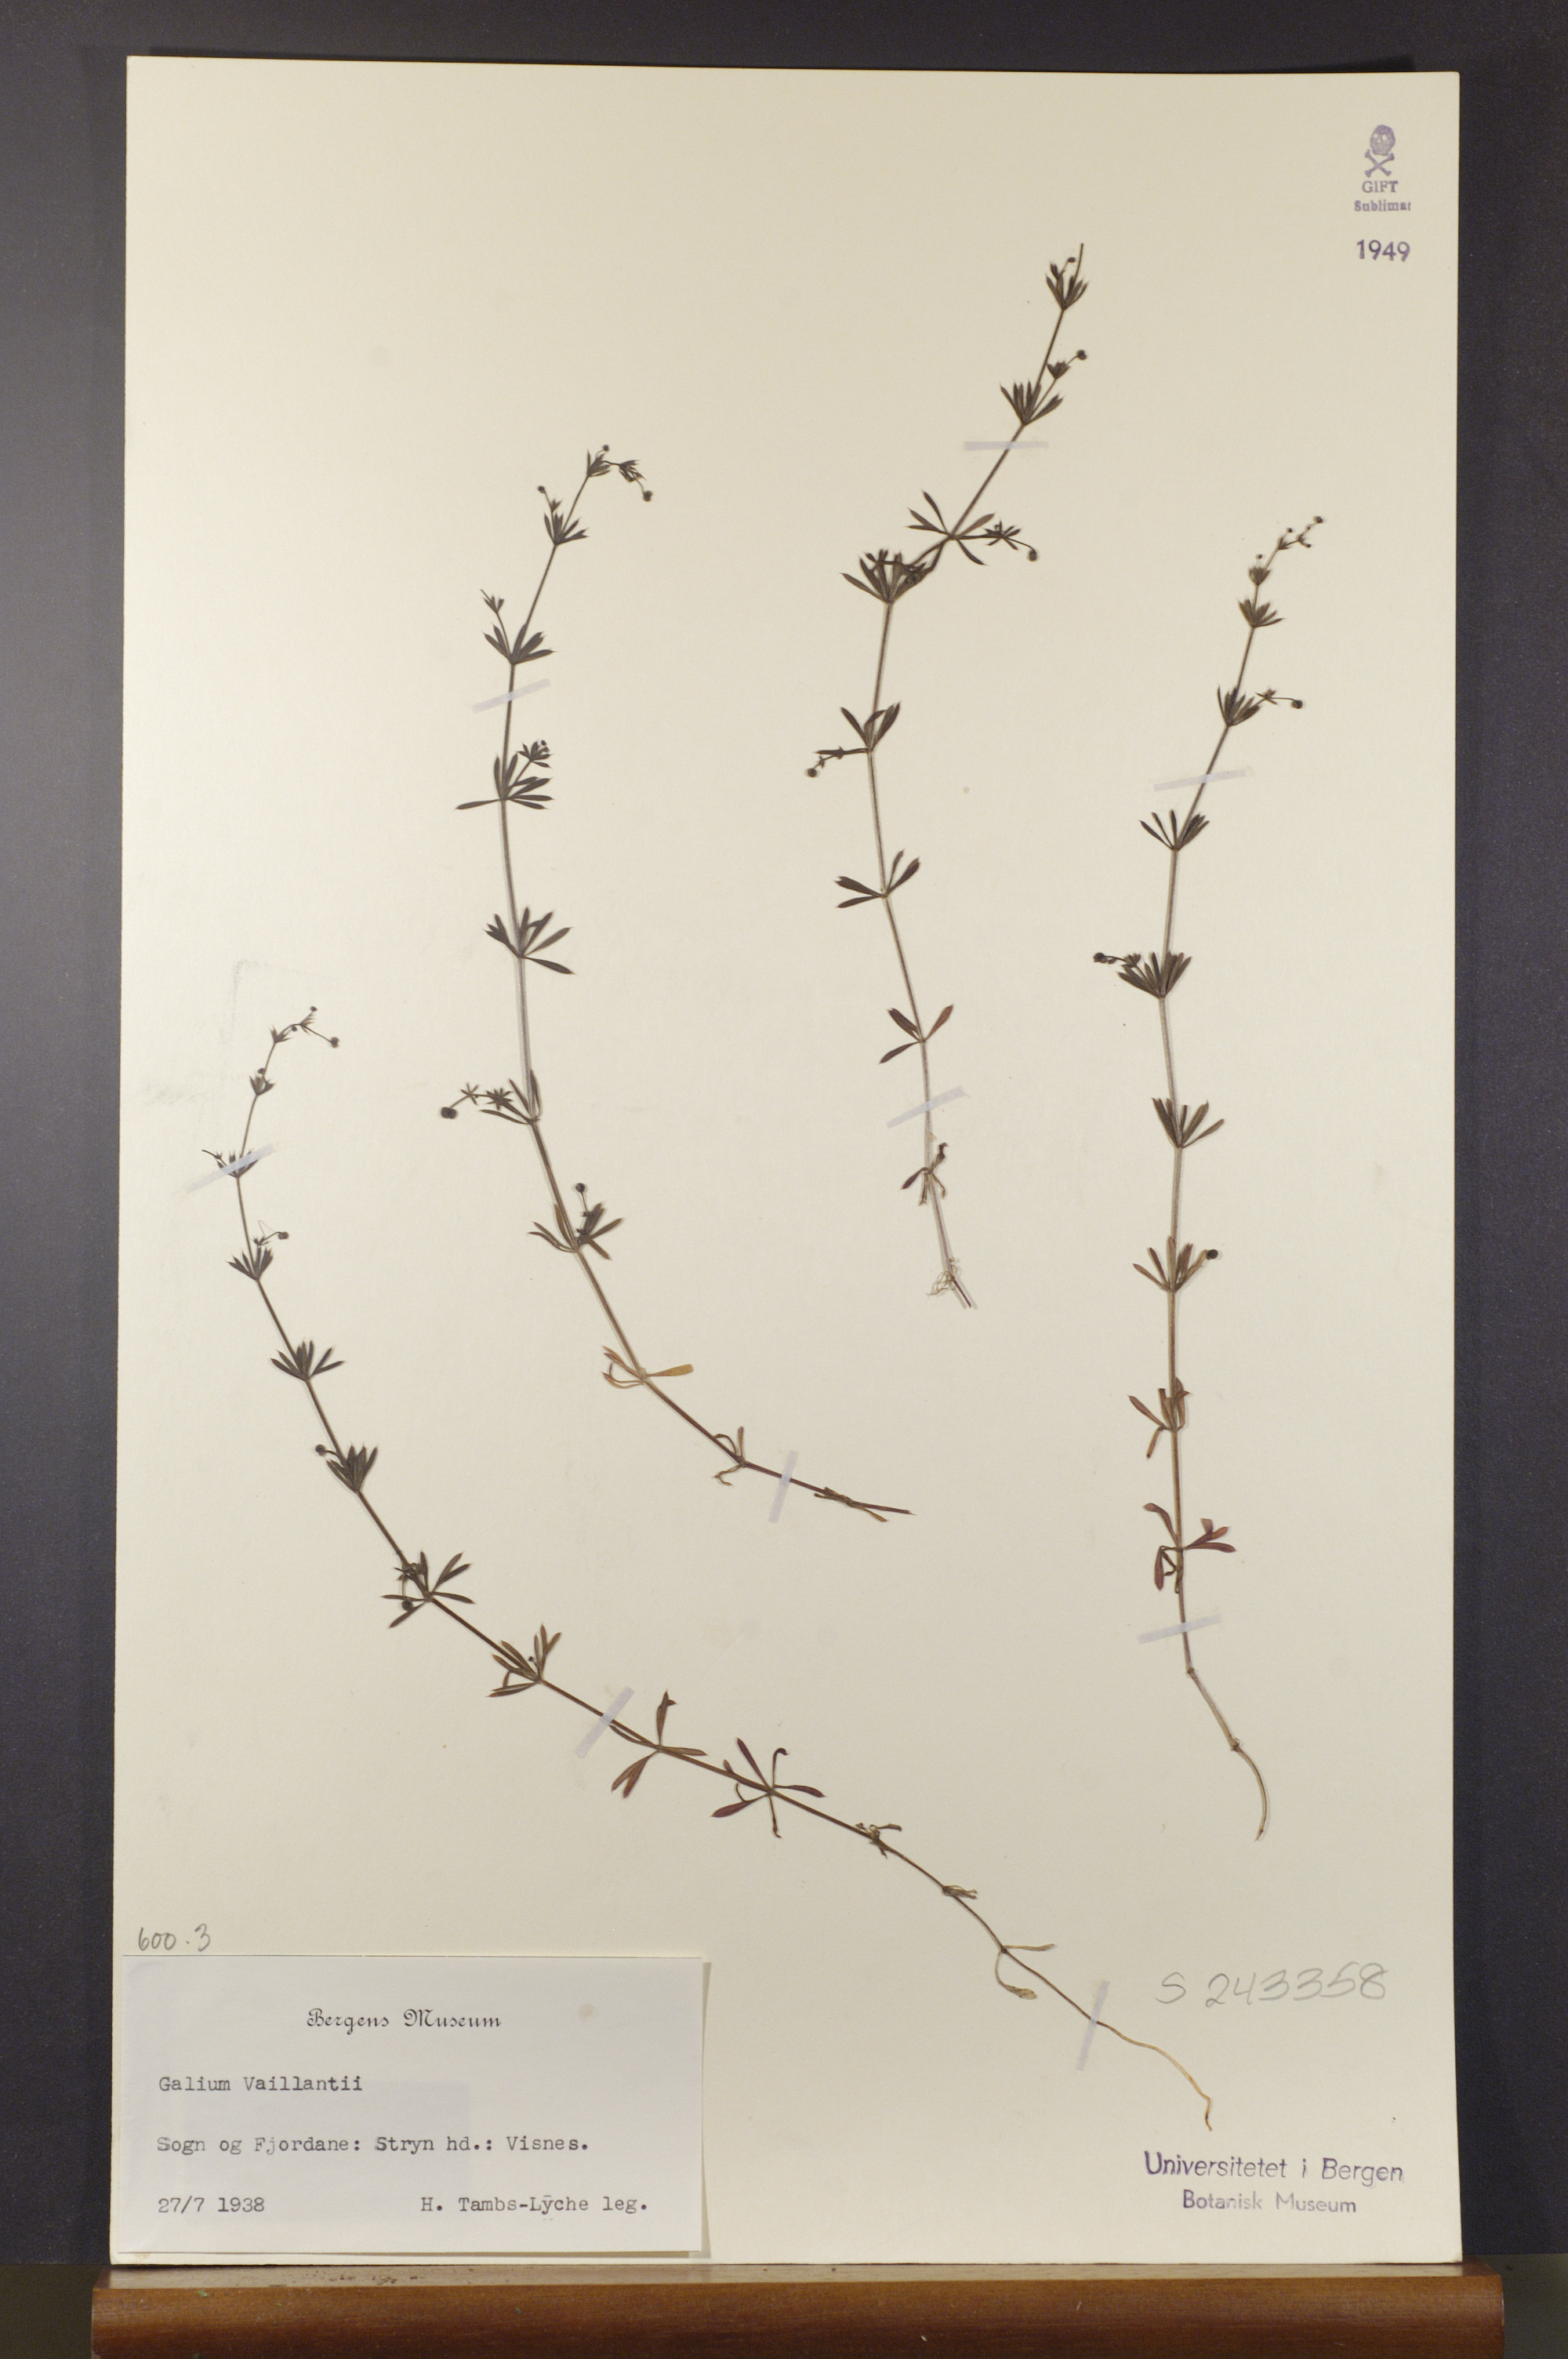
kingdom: Plantae
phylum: Tracheophyta
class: Magnoliopsida
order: Gentianales
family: Rubiaceae
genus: Galium
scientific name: Galium spurium
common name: False cleavers
